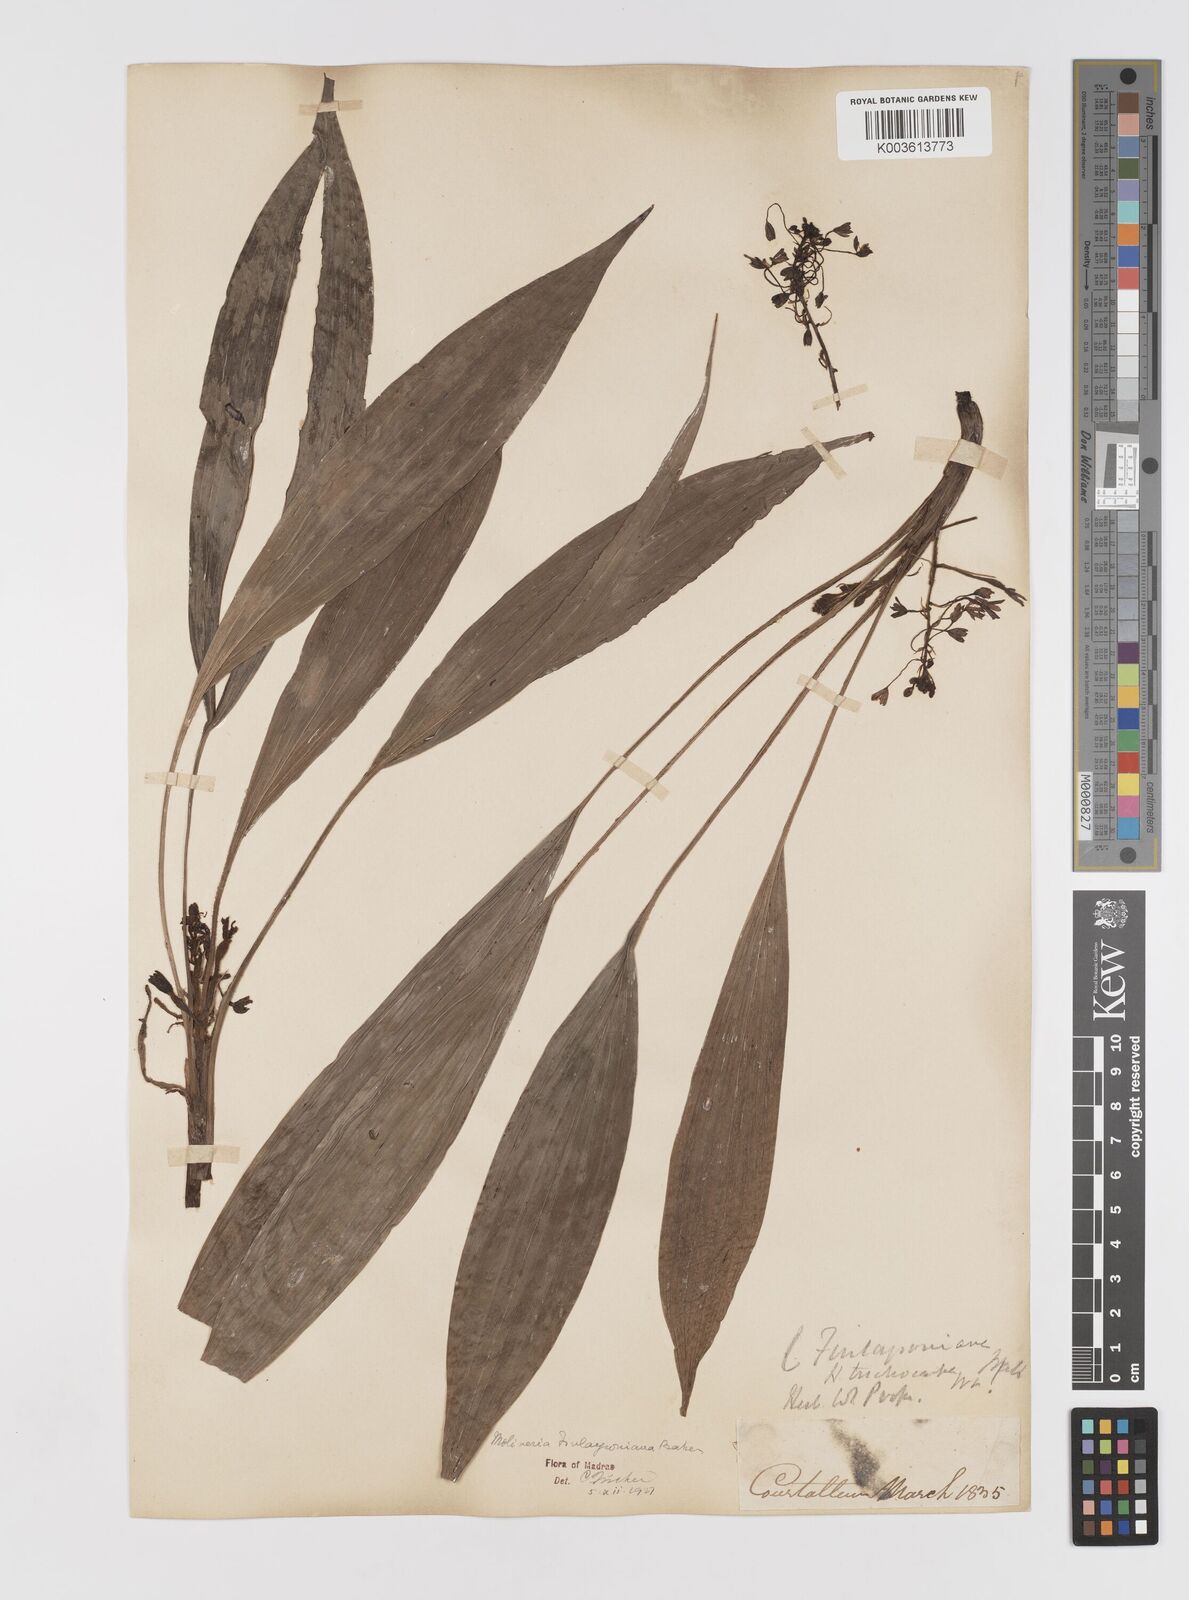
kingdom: Plantae
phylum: Tracheophyta
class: Liliopsida
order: Asparagales
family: Hypoxidaceae
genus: Curculigo
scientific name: Curculigo trichocarpa
